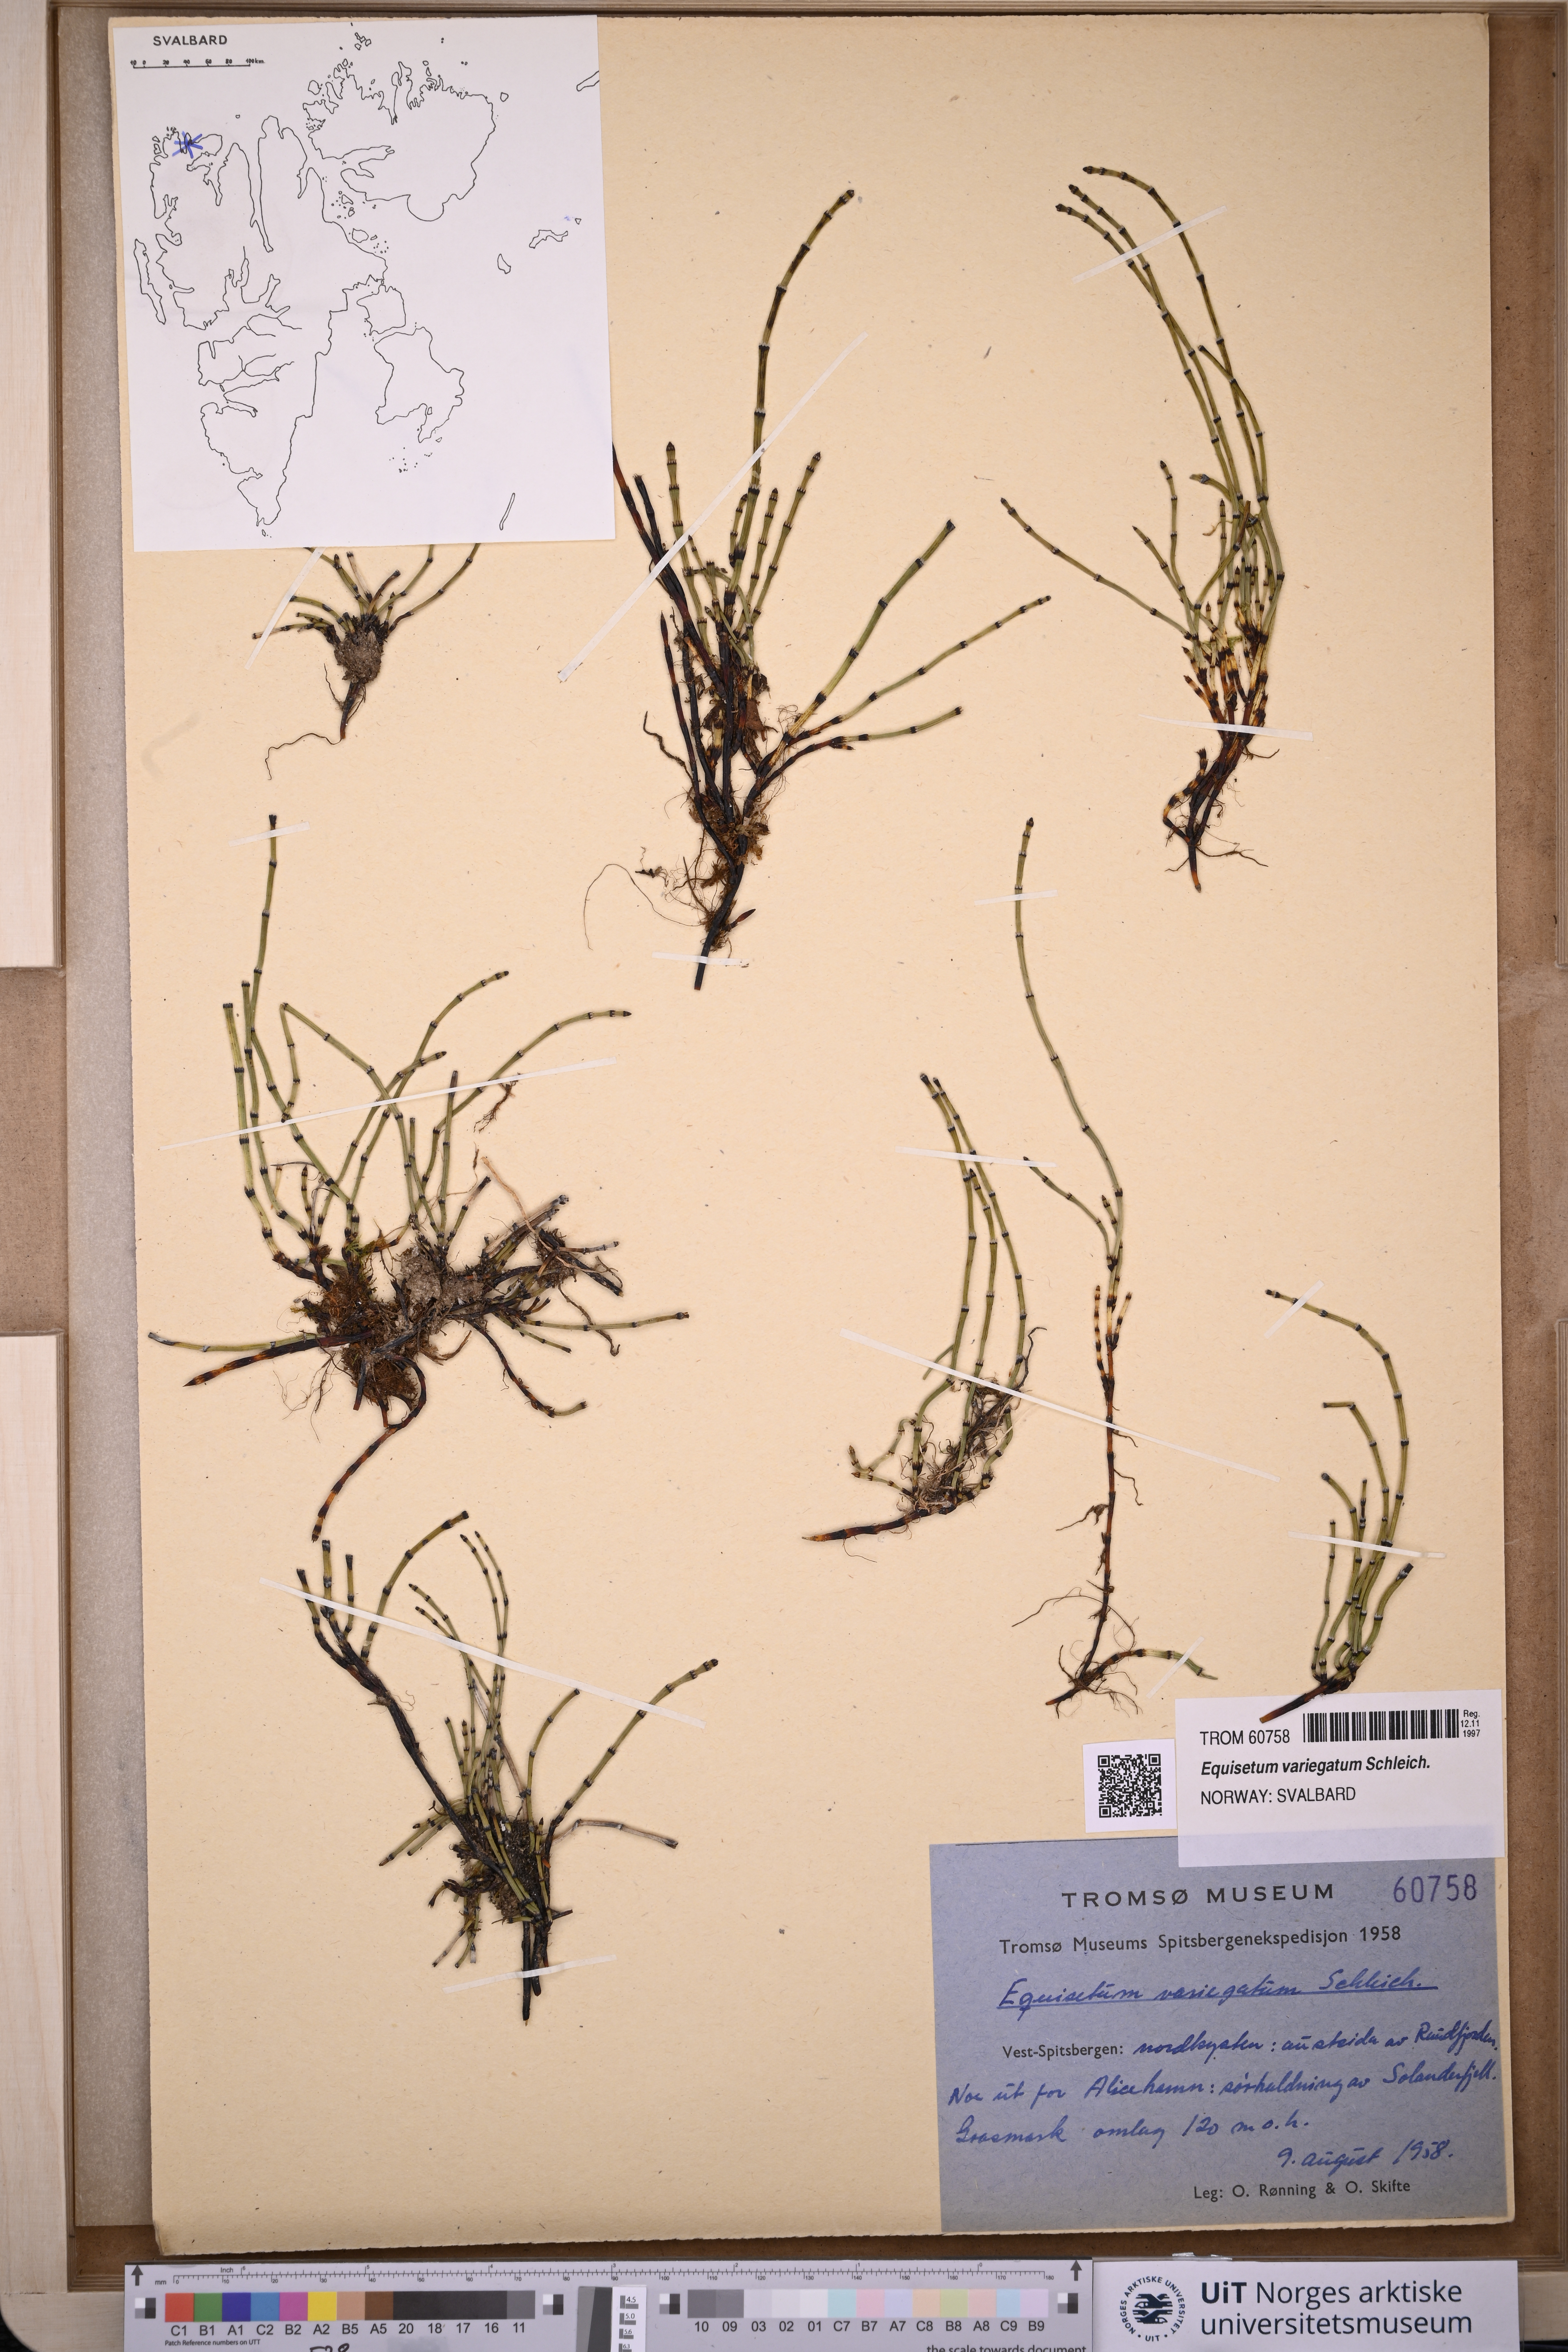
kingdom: Plantae
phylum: Tracheophyta
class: Polypodiopsida
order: Equisetales
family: Equisetaceae
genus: Equisetum
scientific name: Equisetum variegatum
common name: Variegated horsetail
